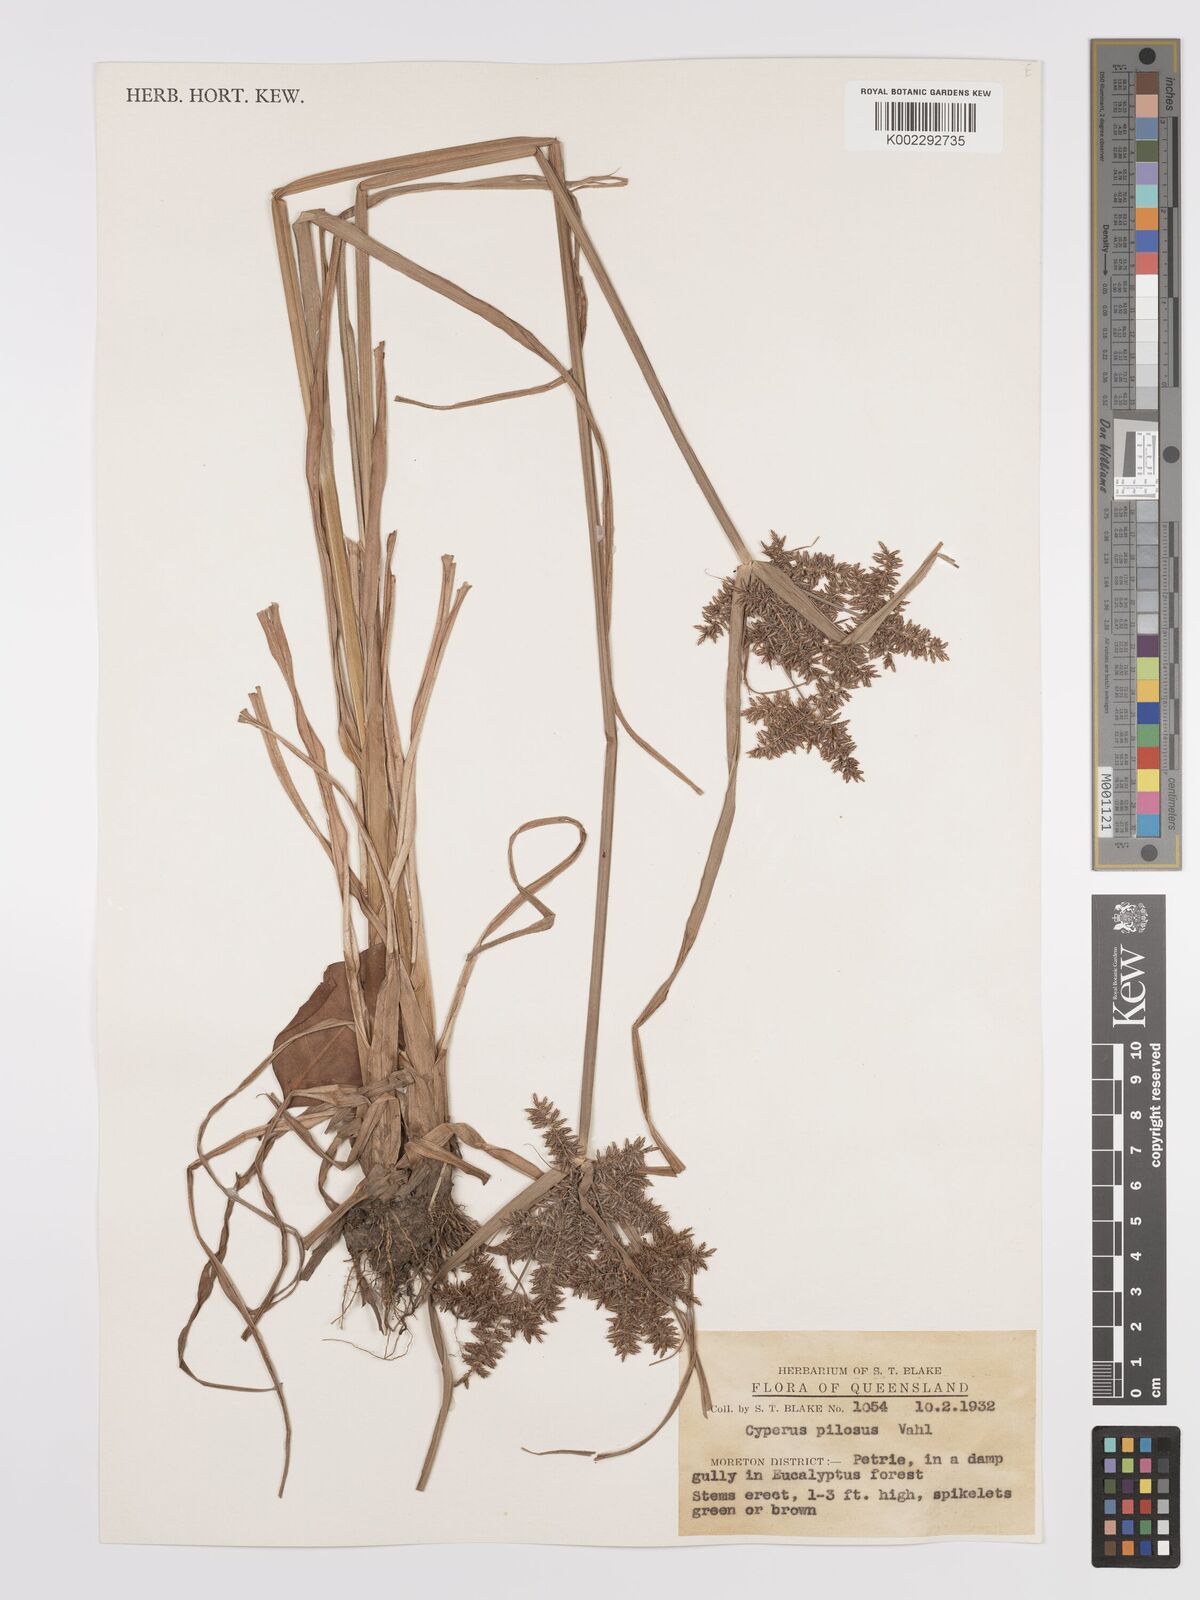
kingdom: Plantae
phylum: Tracheophyta
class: Liliopsida
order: Poales
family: Cyperaceae
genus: Cyperus
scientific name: Cyperus pilosus
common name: Fuzzy flatsedge
